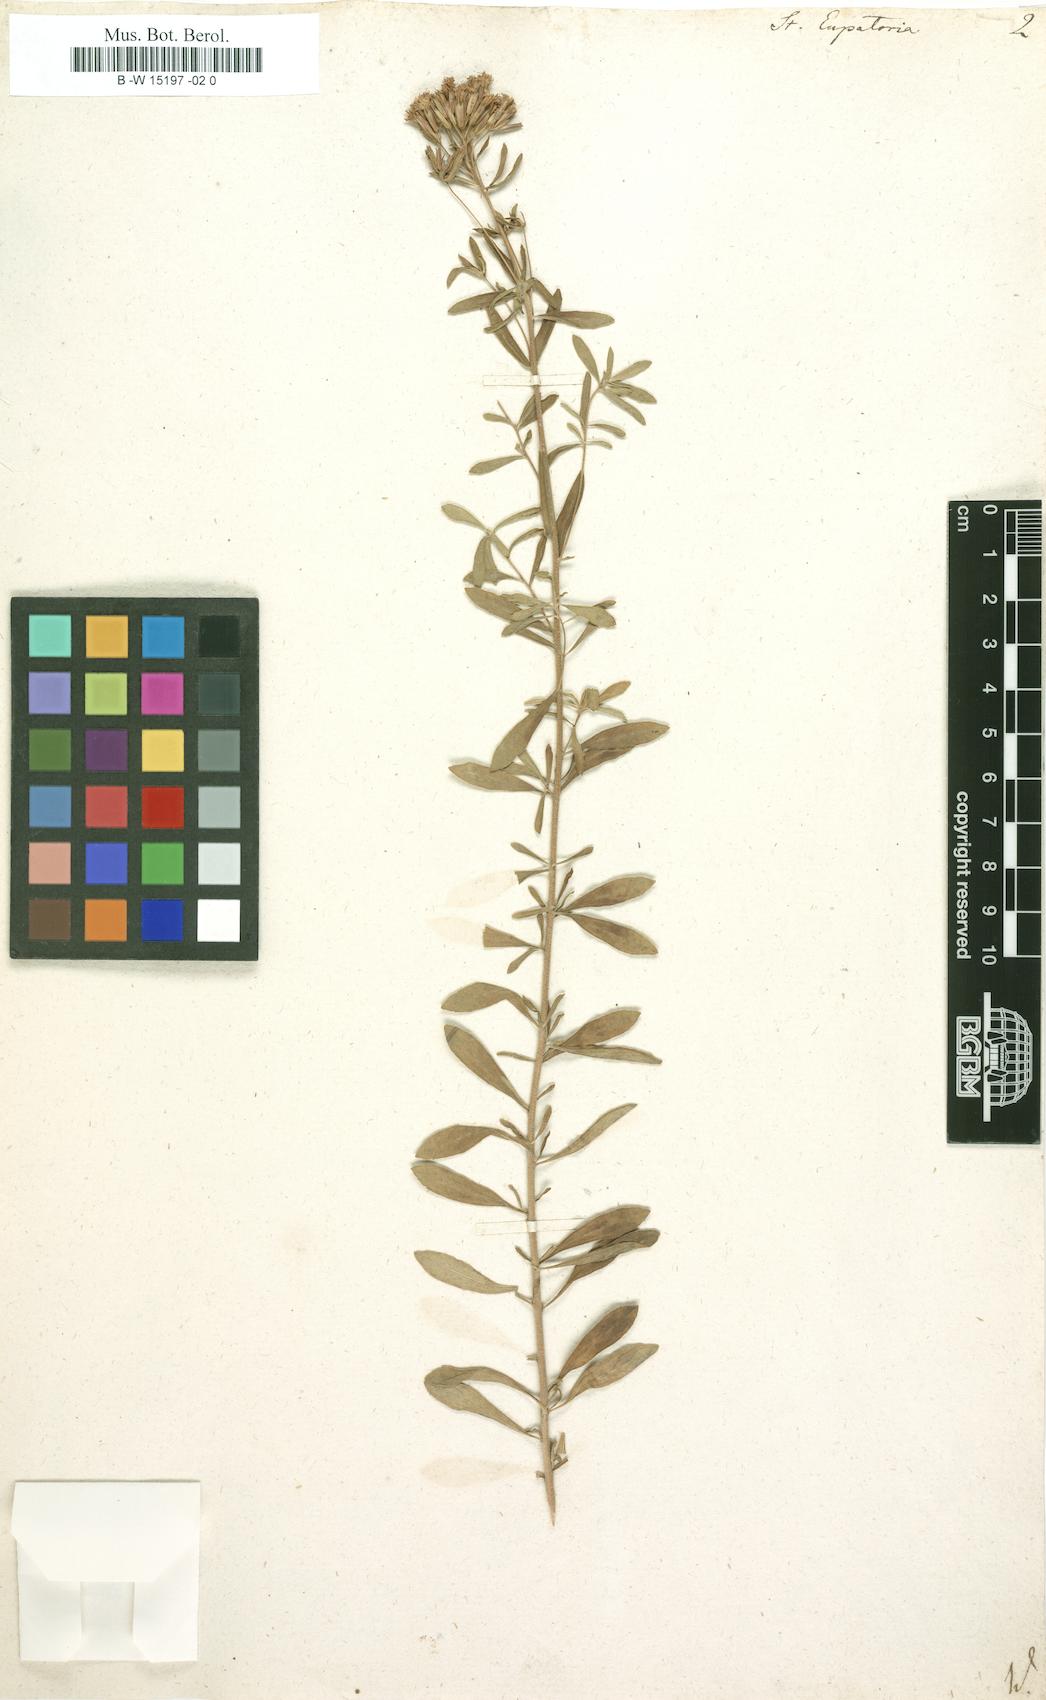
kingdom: Plantae
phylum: Tracheophyta
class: Magnoliopsida
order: Asterales
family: Asteraceae
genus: Stevia
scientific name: Stevia eupatoria
